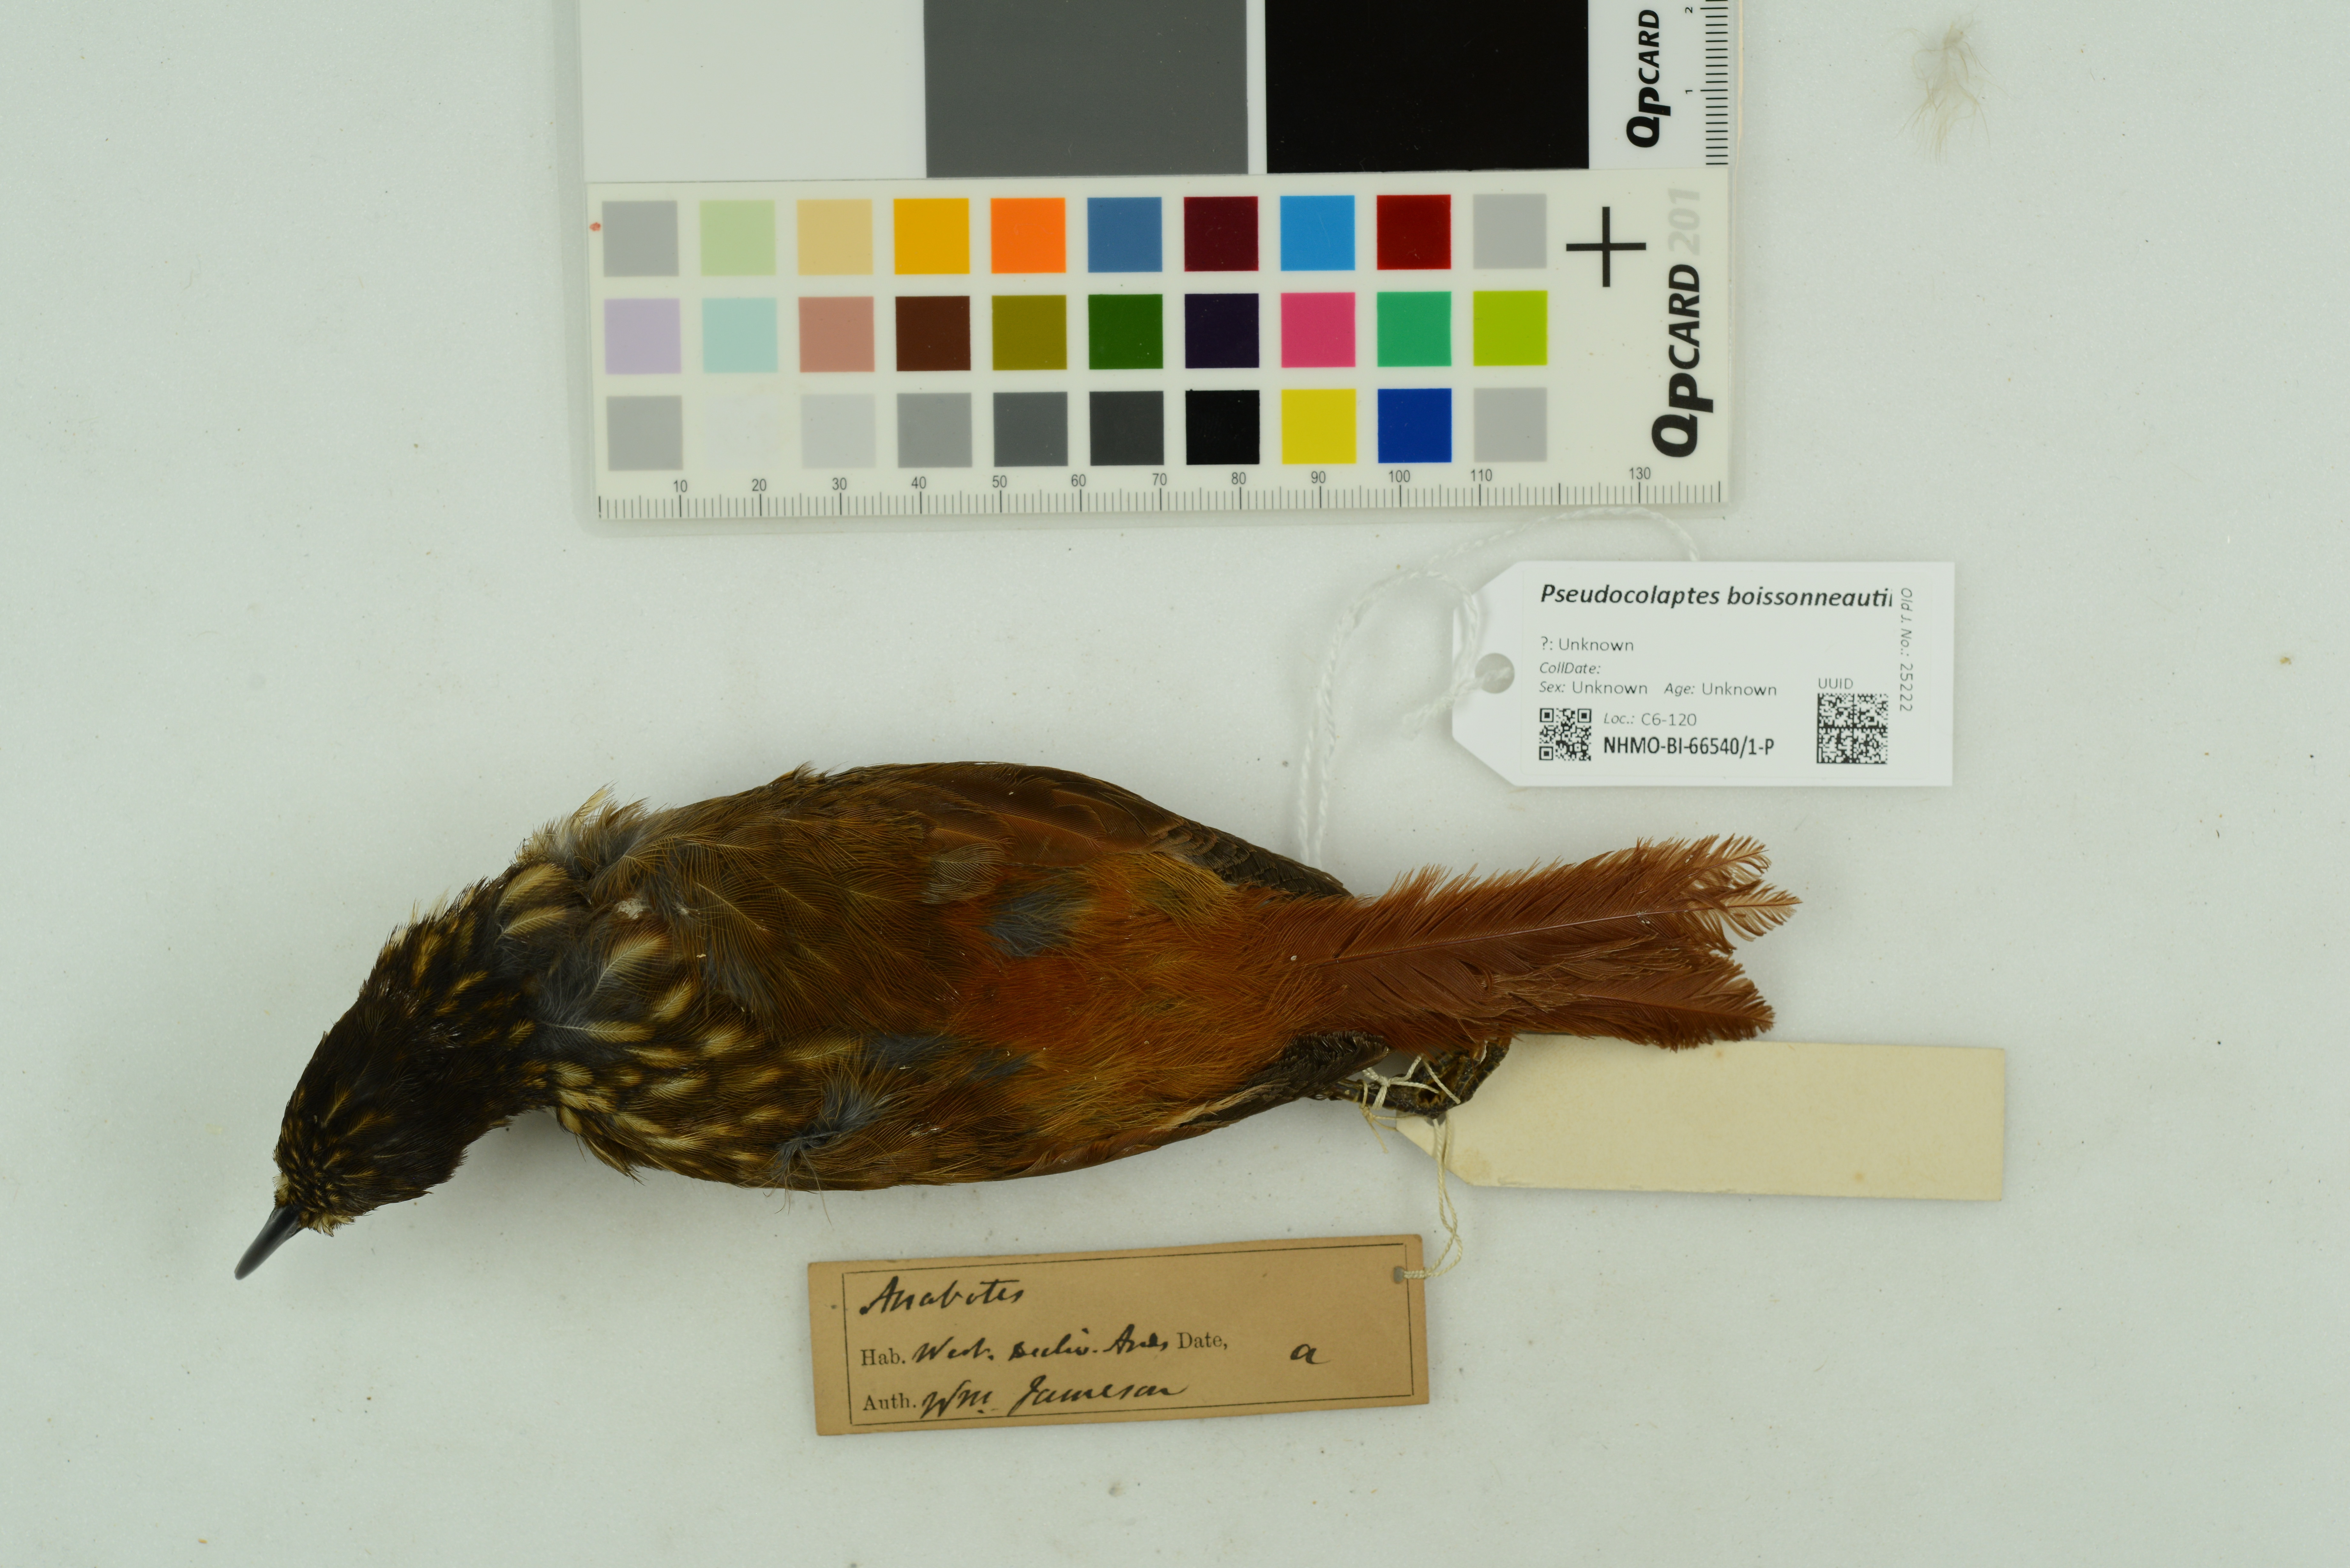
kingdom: Animalia
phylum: Chordata
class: Aves
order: Passeriformes
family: Furnariidae
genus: Pseudocolaptes
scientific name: Pseudocolaptes boissonneautii
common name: Streaked tuftedcheek
